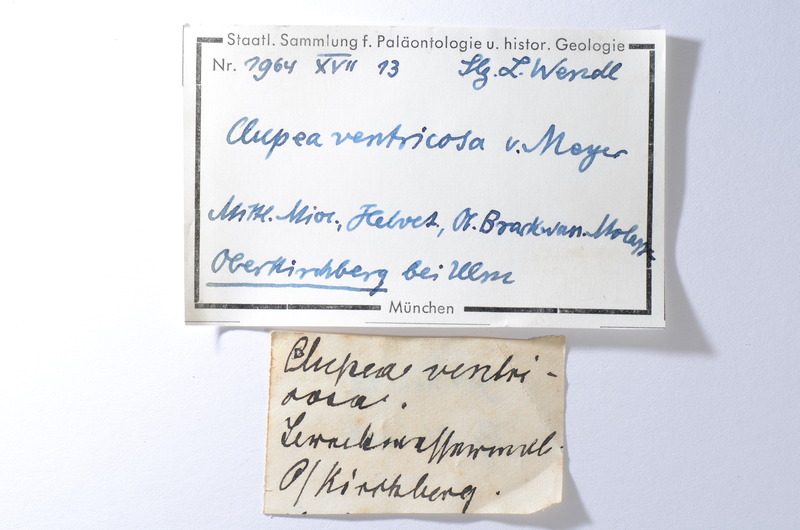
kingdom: Animalia
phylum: Chordata
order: Clupeiformes
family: Clupeidae
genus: Clupea
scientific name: Clupea ventricosa
